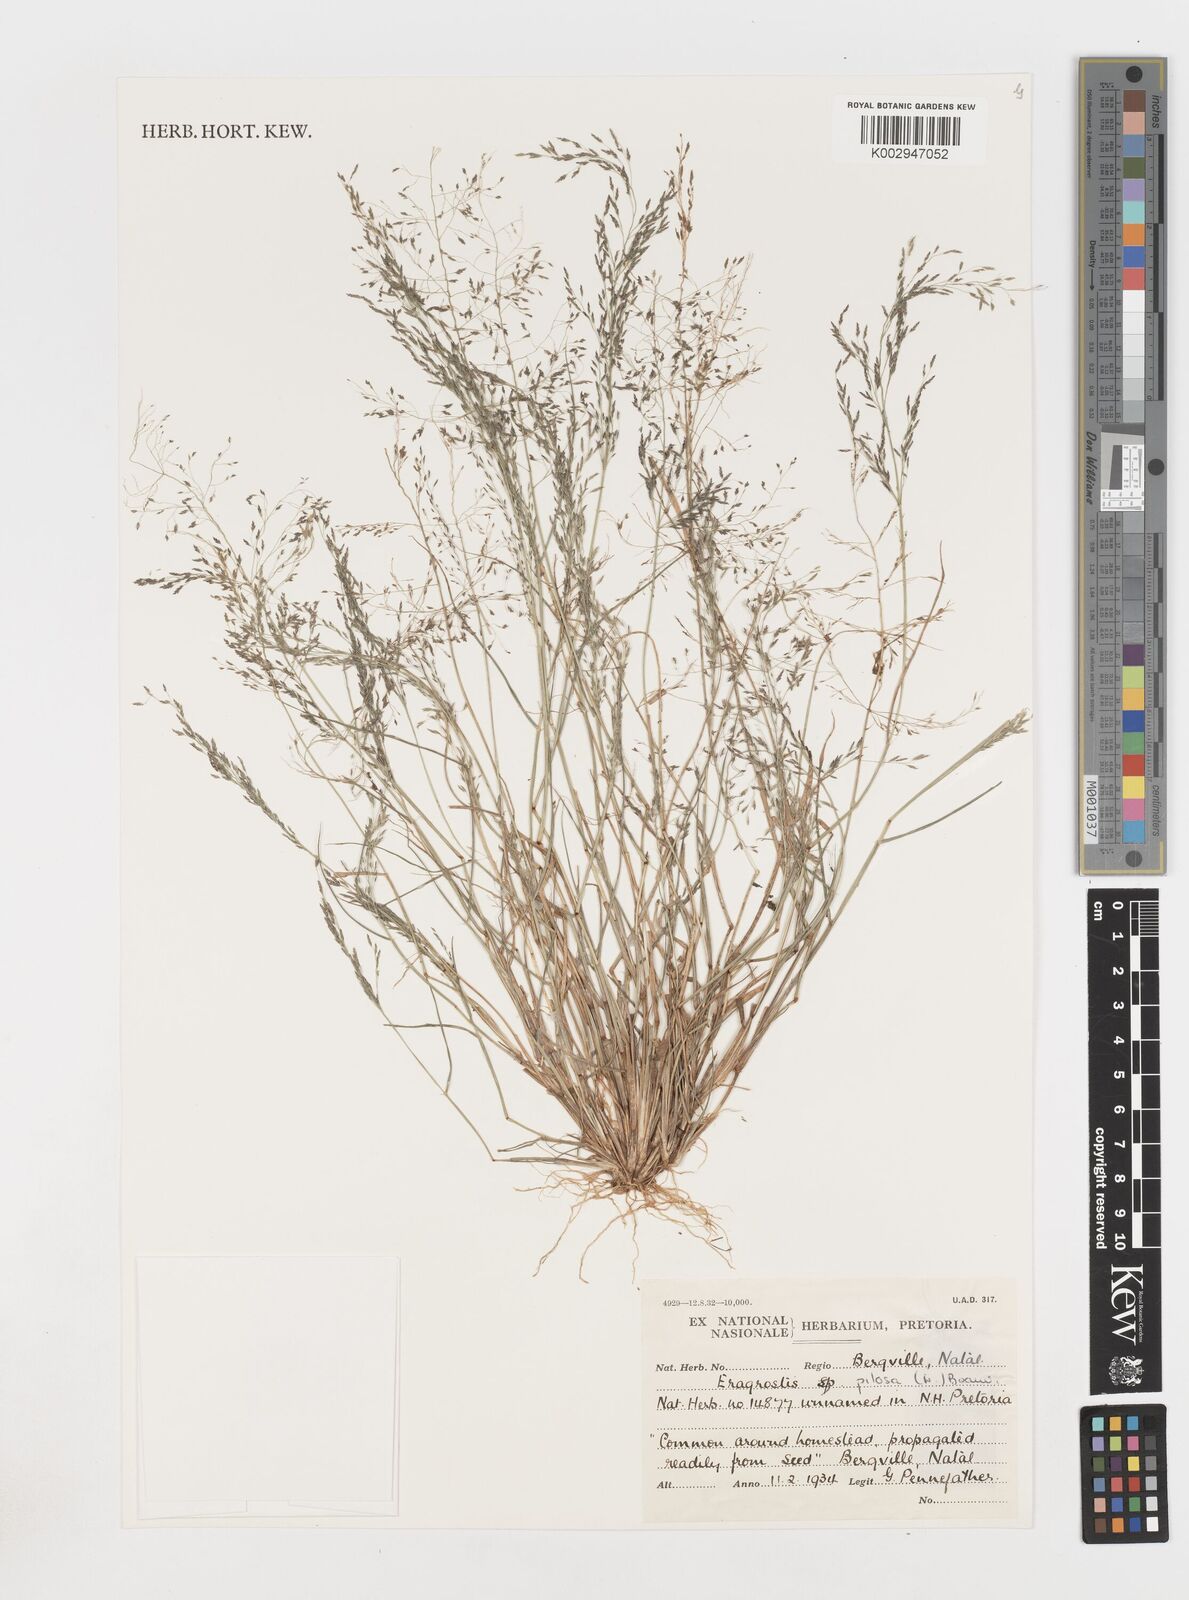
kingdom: Plantae
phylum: Tracheophyta
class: Liliopsida
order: Poales
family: Poaceae
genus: Eragrostis
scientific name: Eragrostis pilosa
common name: Indian lovegrass
